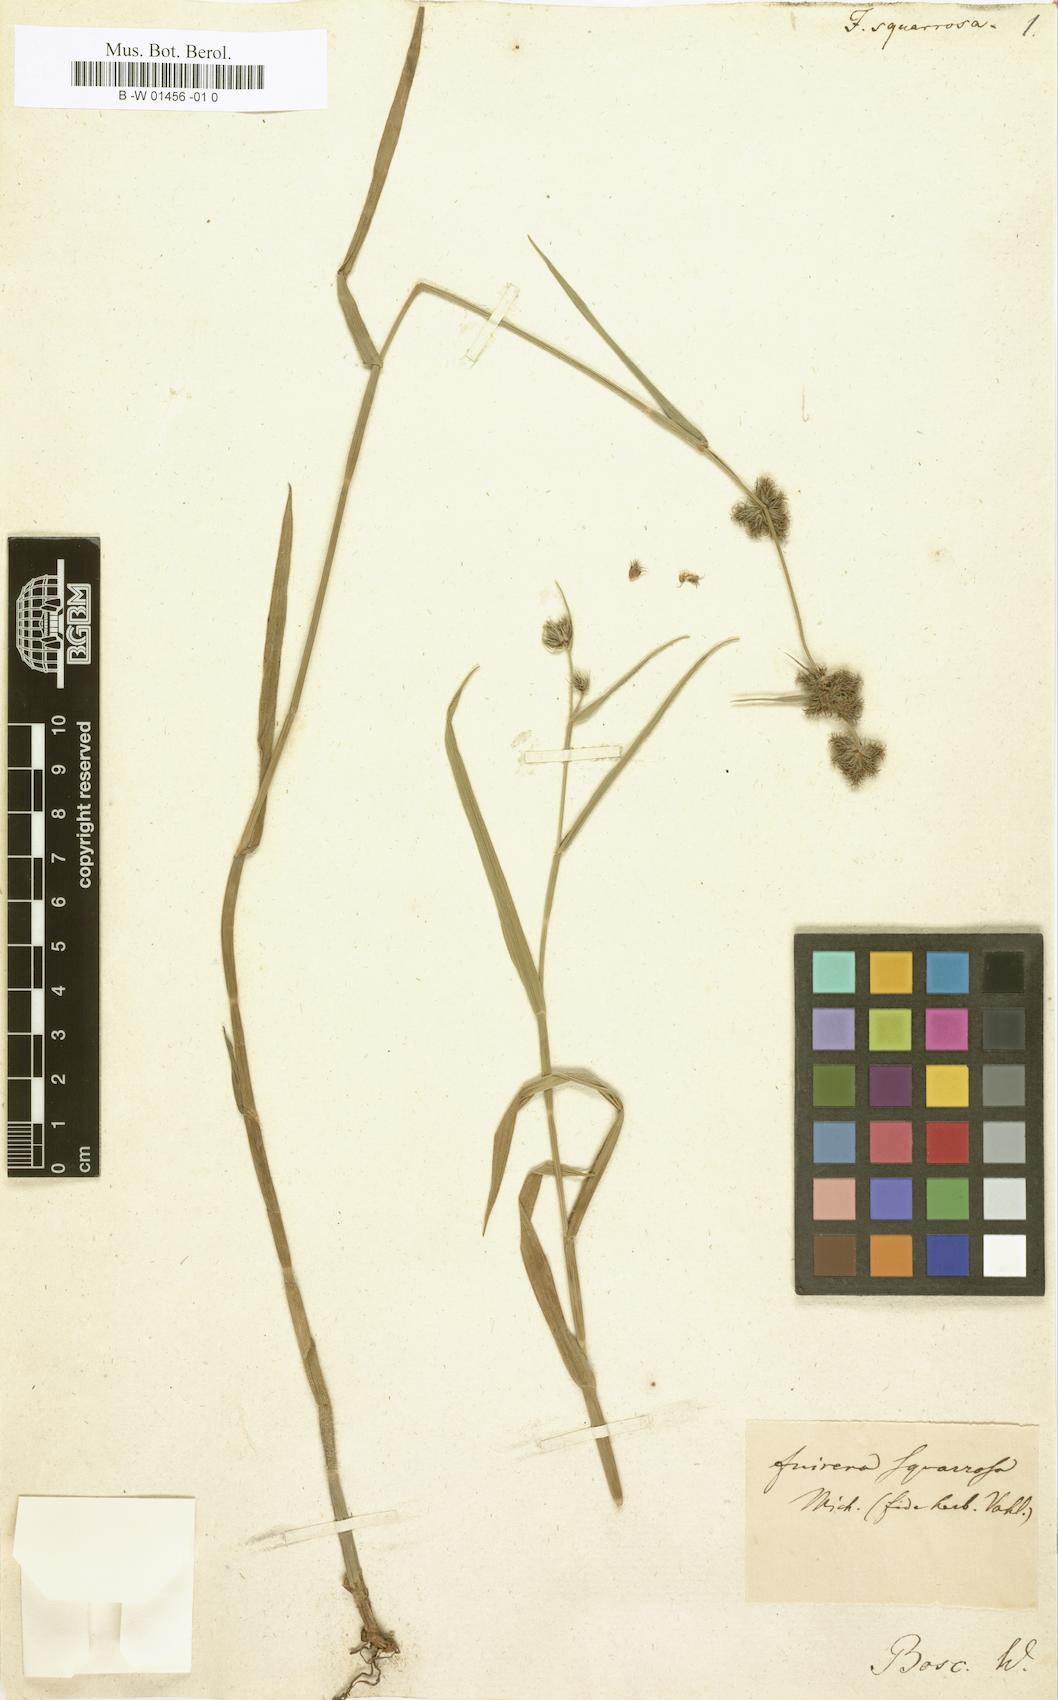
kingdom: Plantae
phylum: Tracheophyta
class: Liliopsida
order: Poales
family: Cyperaceae
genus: Fuirena
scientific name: Fuirena squarrosa
